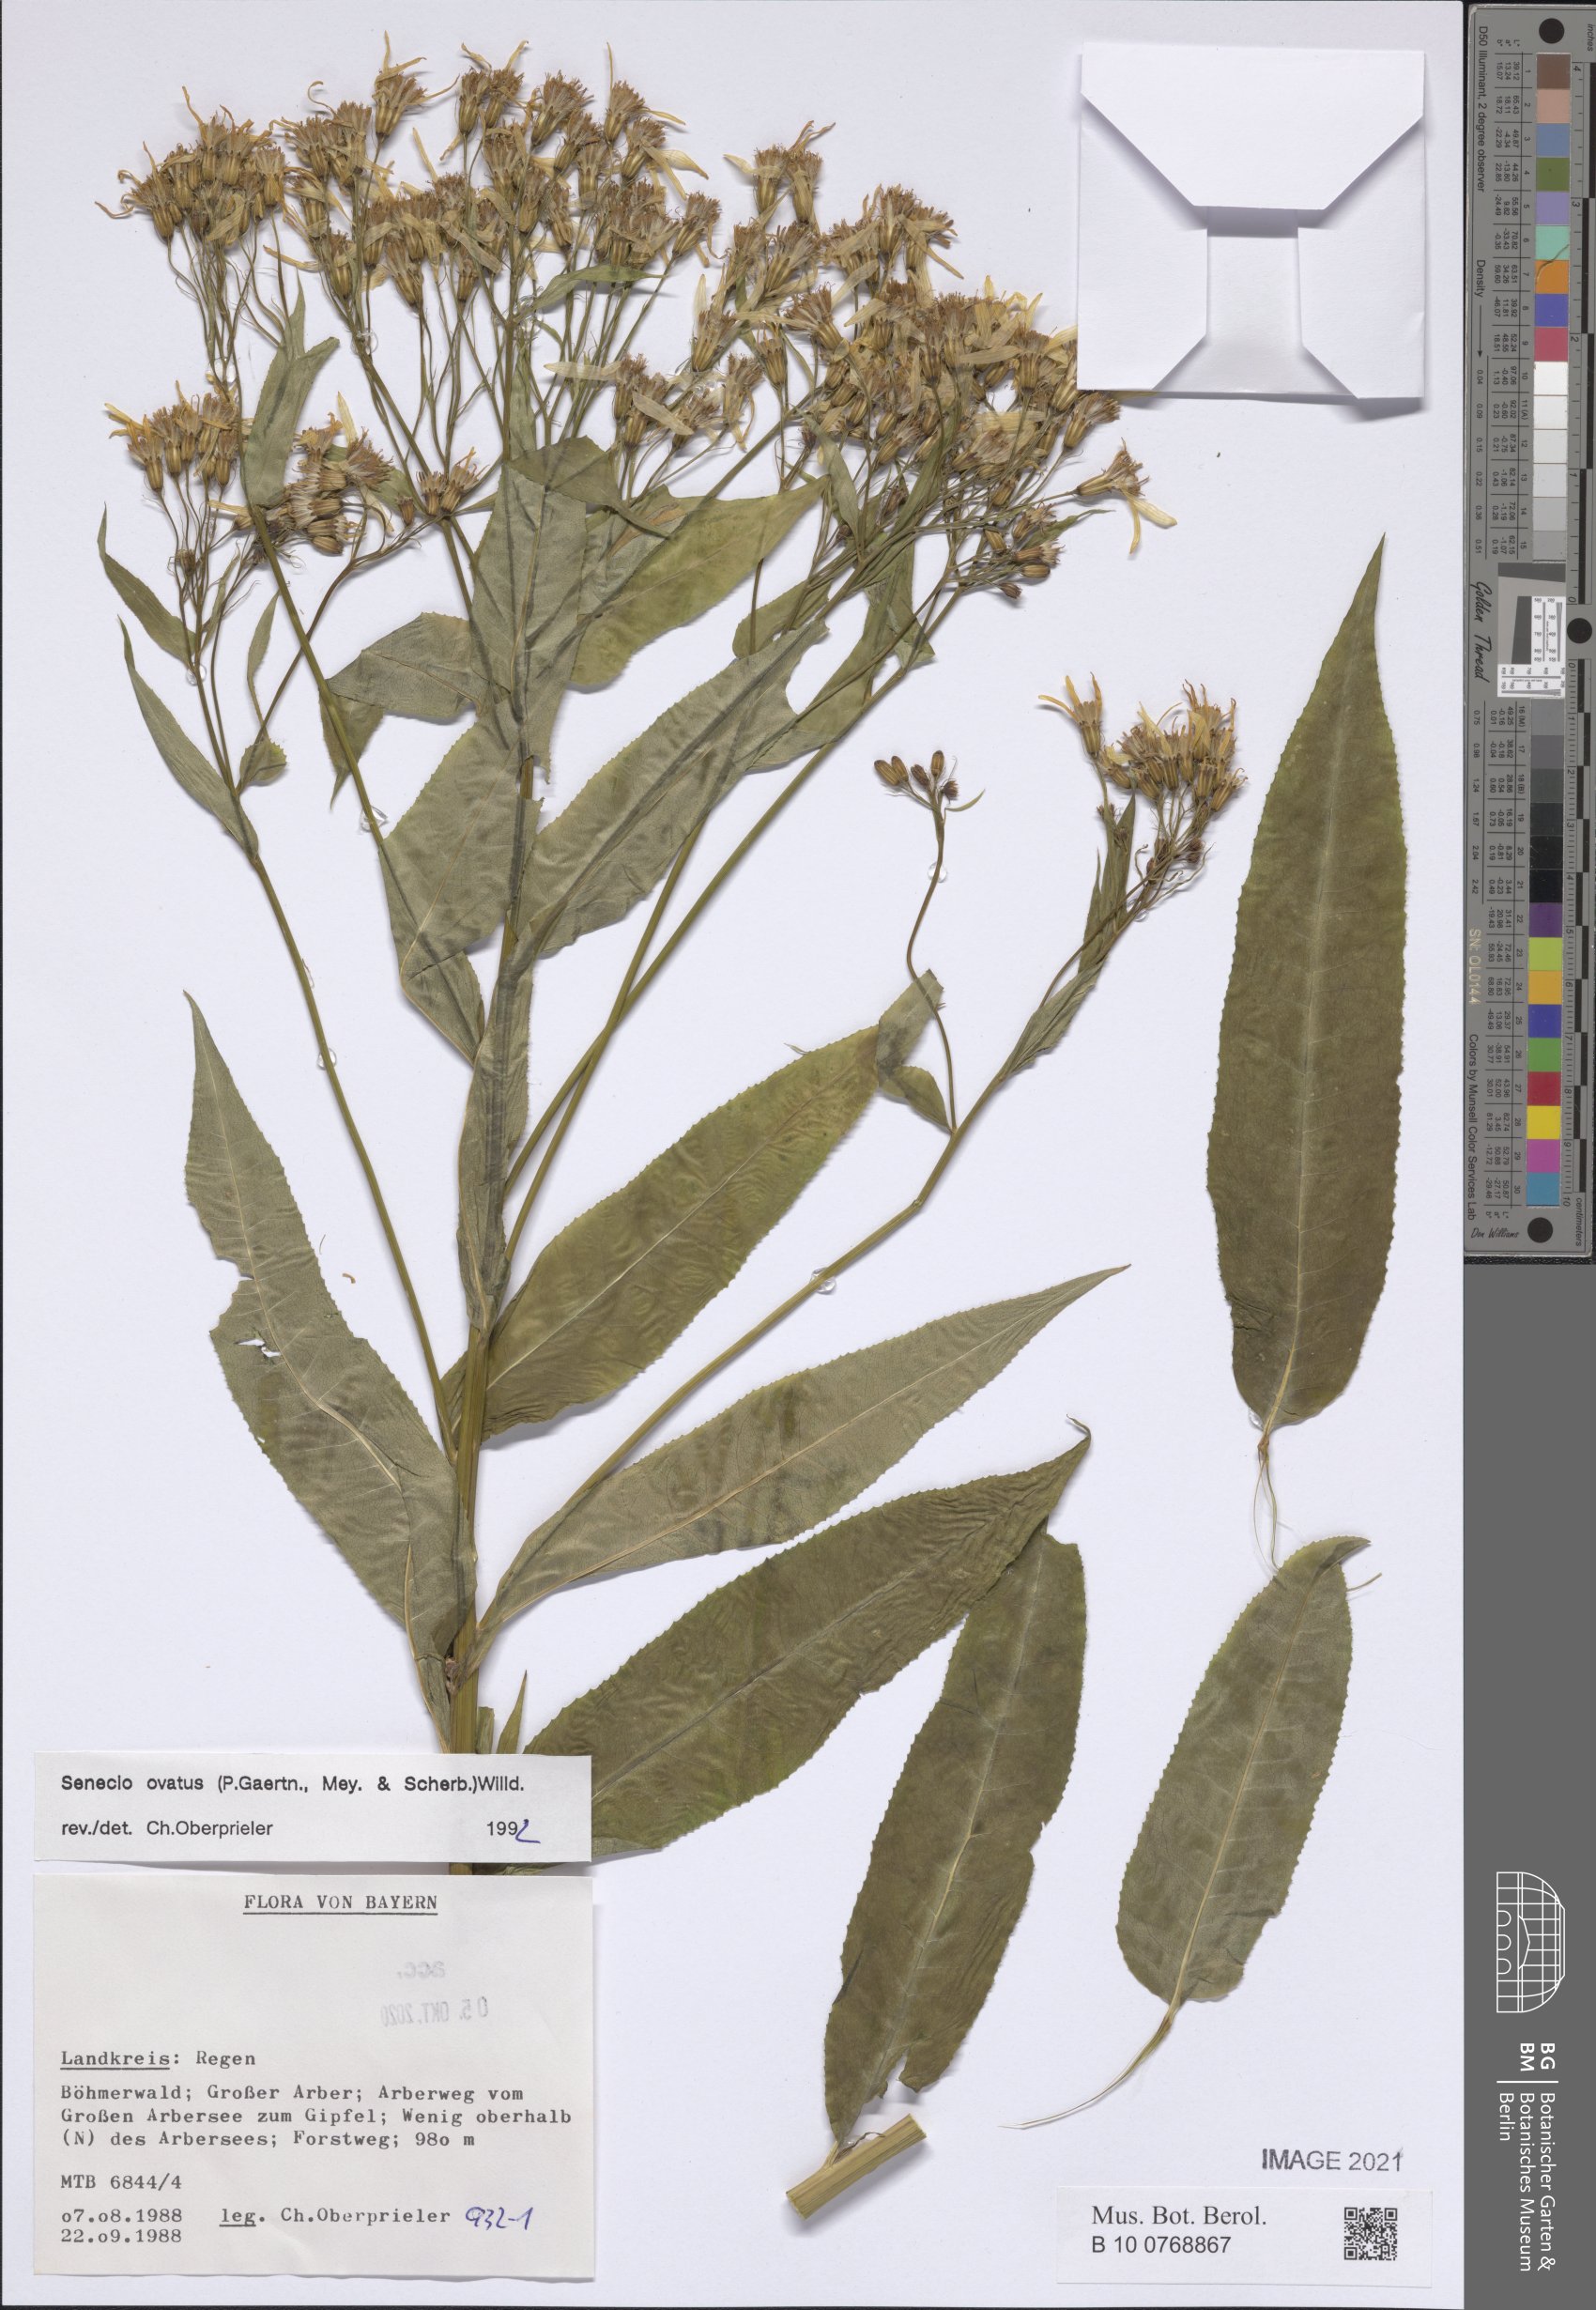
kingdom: Plantae
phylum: Tracheophyta
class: Magnoliopsida
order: Asterales
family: Asteraceae
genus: Senecio
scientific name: Senecio ovatus
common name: Wood ragwort
